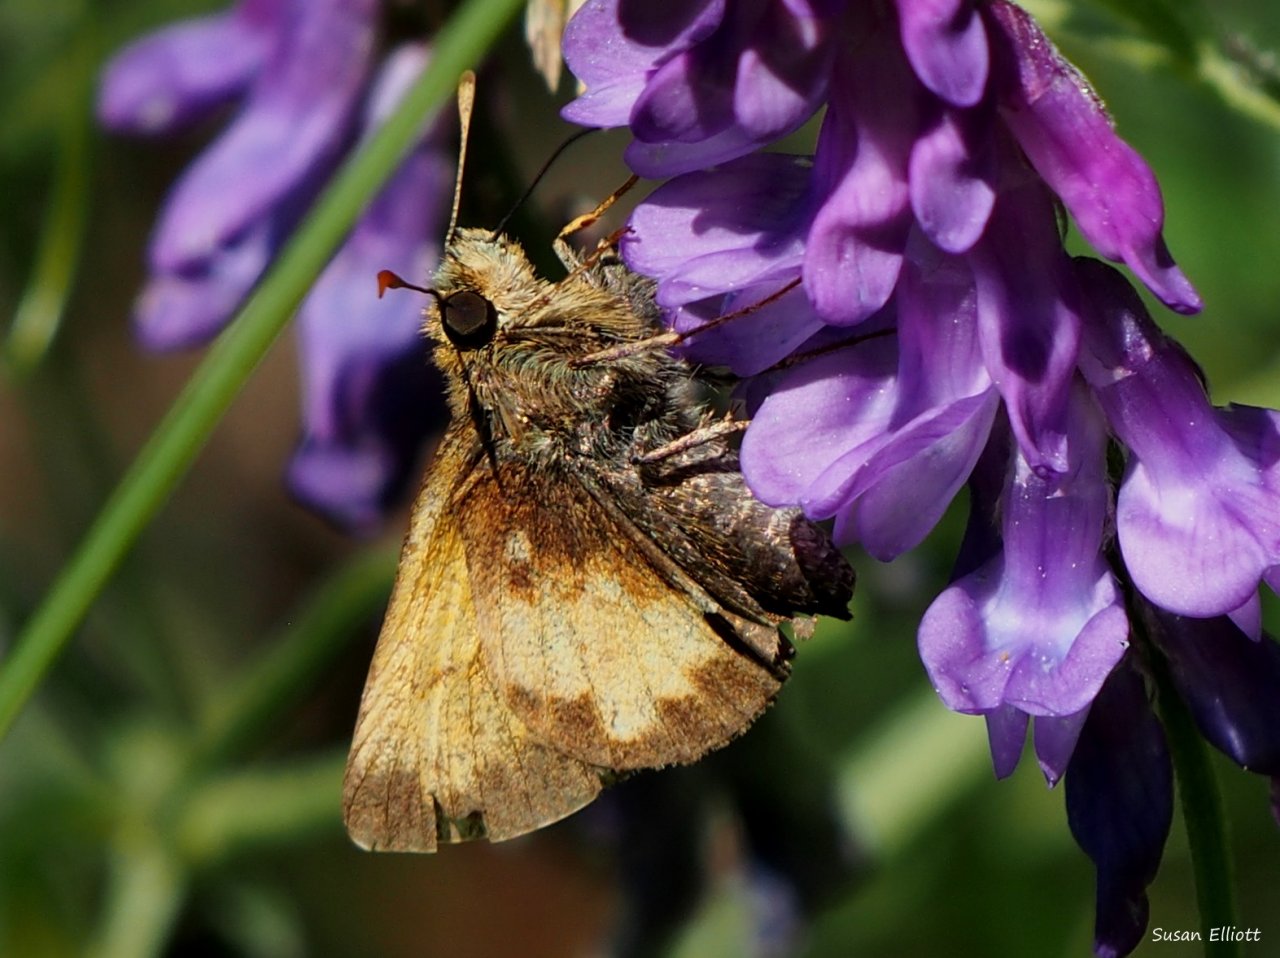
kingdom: Animalia
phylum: Arthropoda
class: Insecta
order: Lepidoptera
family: Hesperiidae
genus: Lon
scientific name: Lon hobomok
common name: Hobomok Skipper
